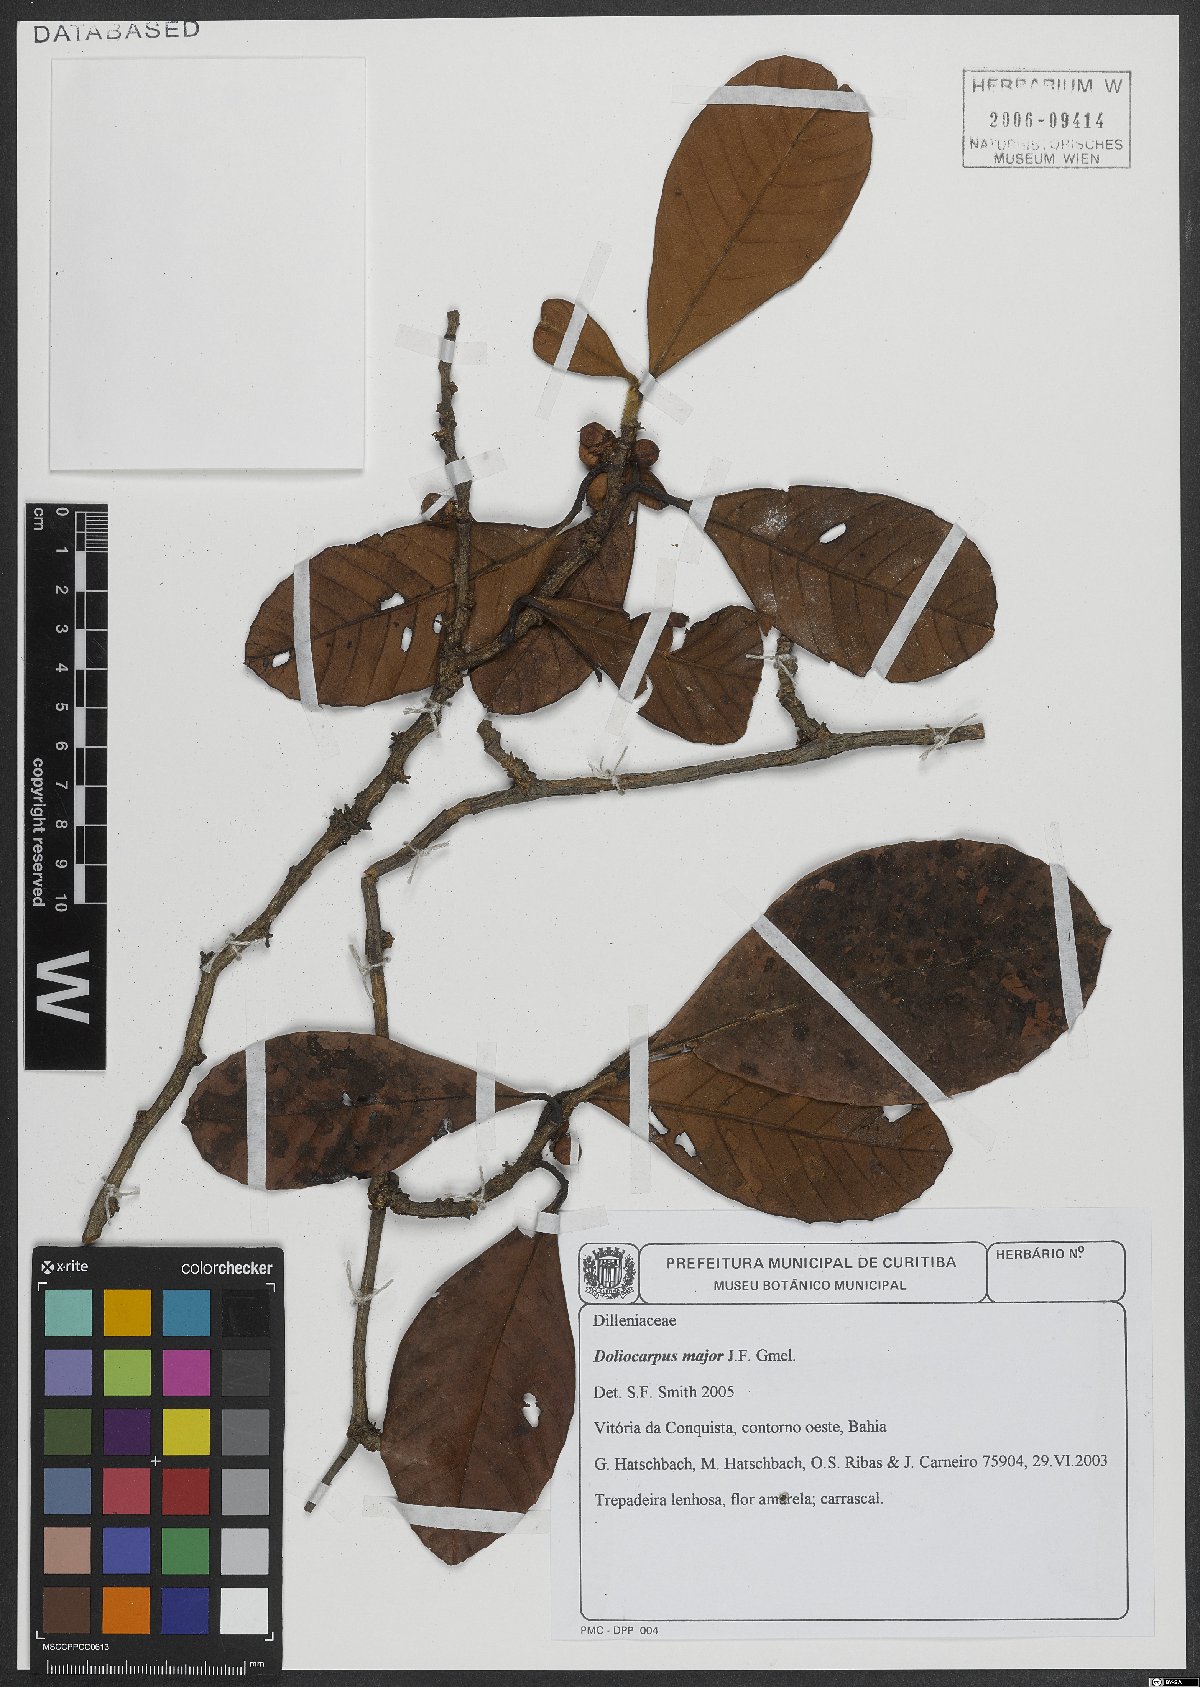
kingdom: Plantae
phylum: Tracheophyta
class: Magnoliopsida
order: Dilleniales
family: Dilleniaceae
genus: Doliocarpus
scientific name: Doliocarpus major
